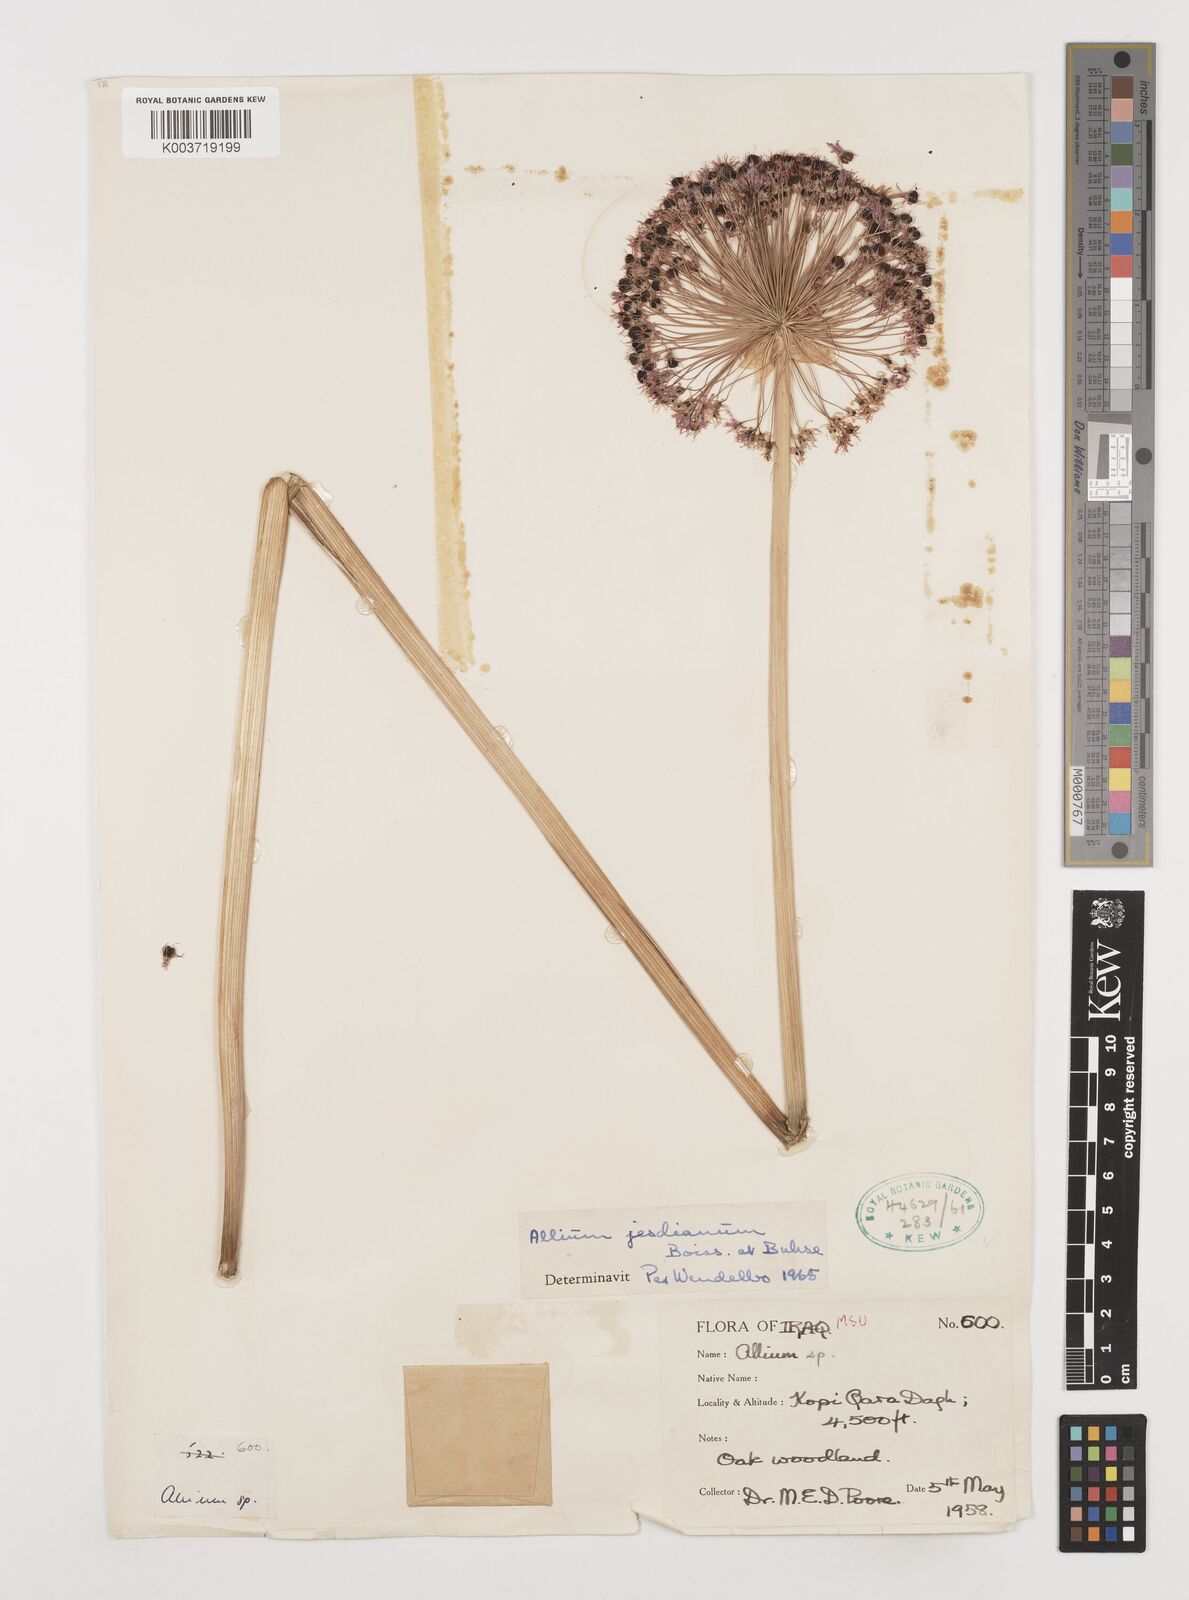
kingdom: Plantae
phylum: Tracheophyta
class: Liliopsida
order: Asparagales
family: Amaryllidaceae
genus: Allium
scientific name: Allium jesdianum
